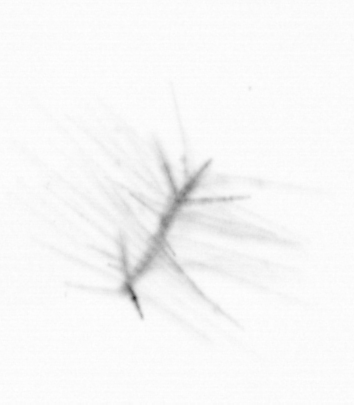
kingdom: Chromista
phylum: Ochrophyta
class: Bacillariophyceae
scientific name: Bacillariophyceae
